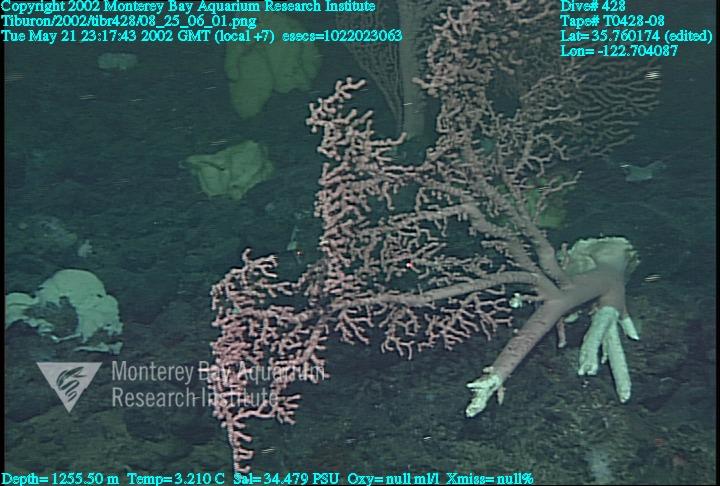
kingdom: Animalia
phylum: Porifera
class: Hexactinellida
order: Lyssacinosida
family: Rossellidae
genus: Staurocalyptus
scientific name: Staurocalyptus
